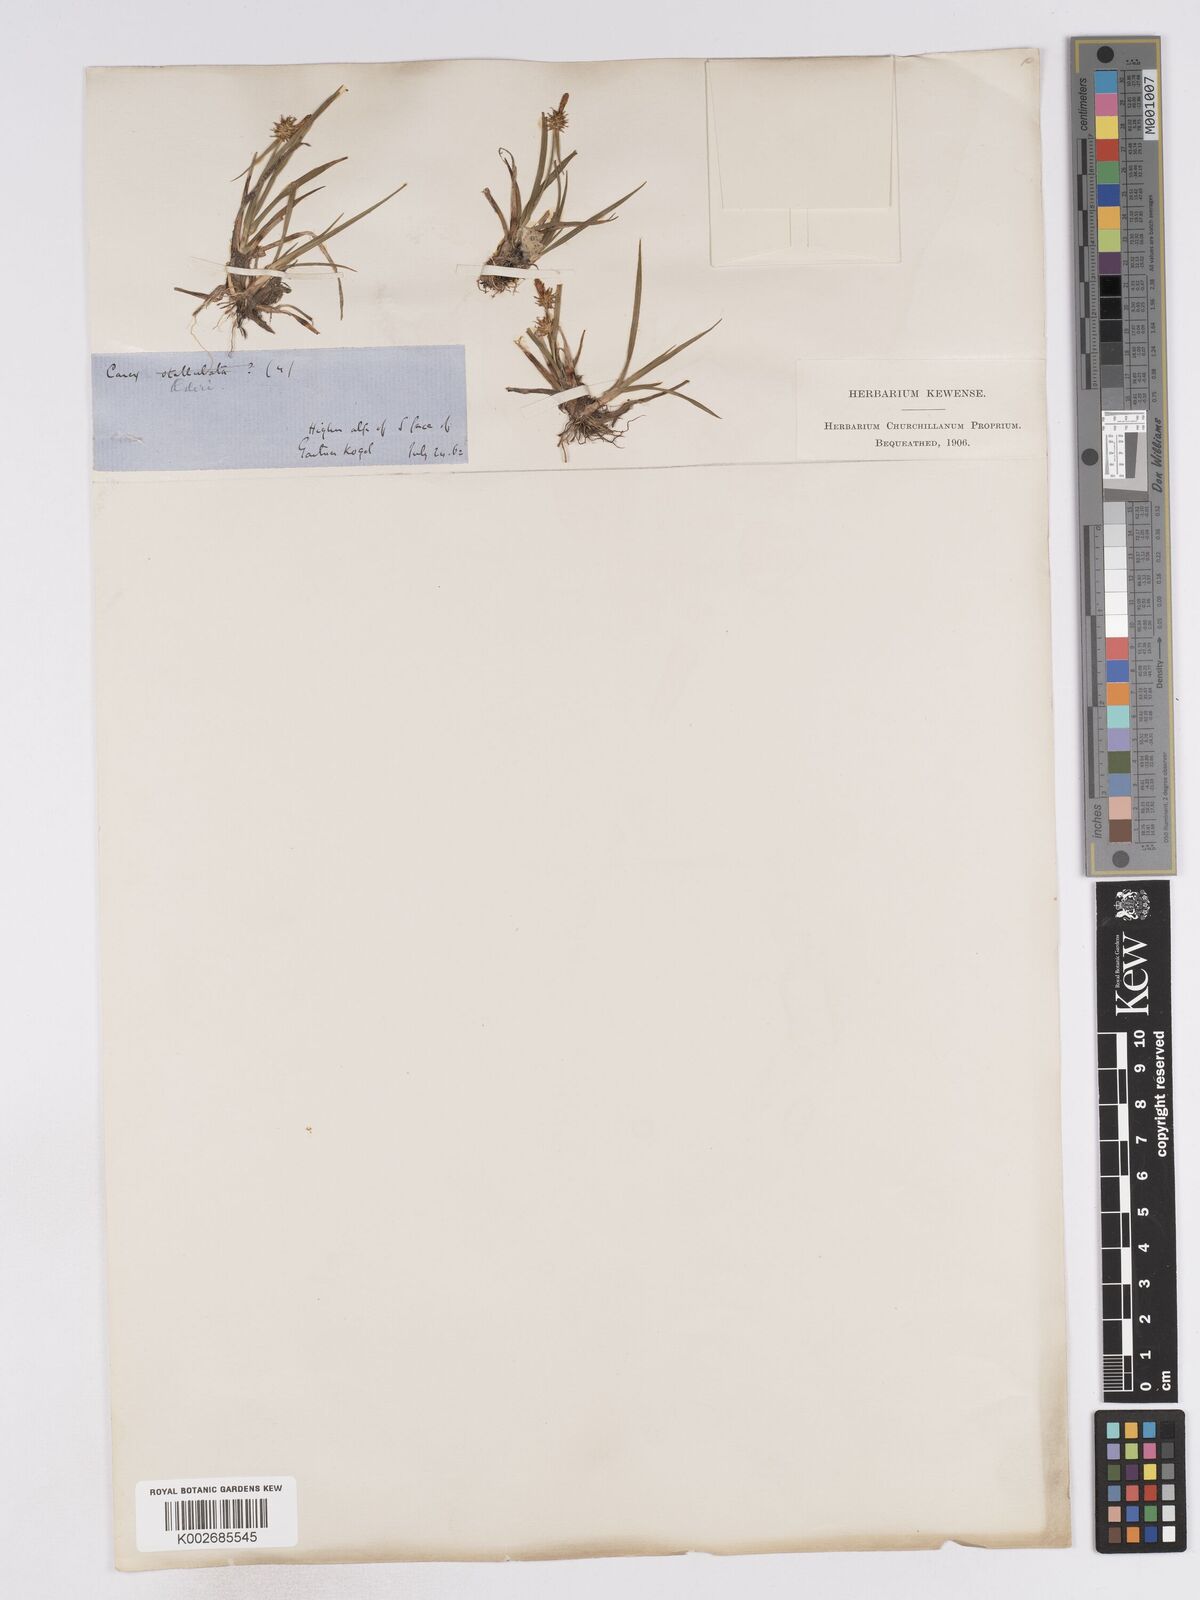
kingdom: Plantae
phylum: Tracheophyta
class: Liliopsida
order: Poales
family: Cyperaceae
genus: Carex
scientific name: Carex echinata
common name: Star sedge
